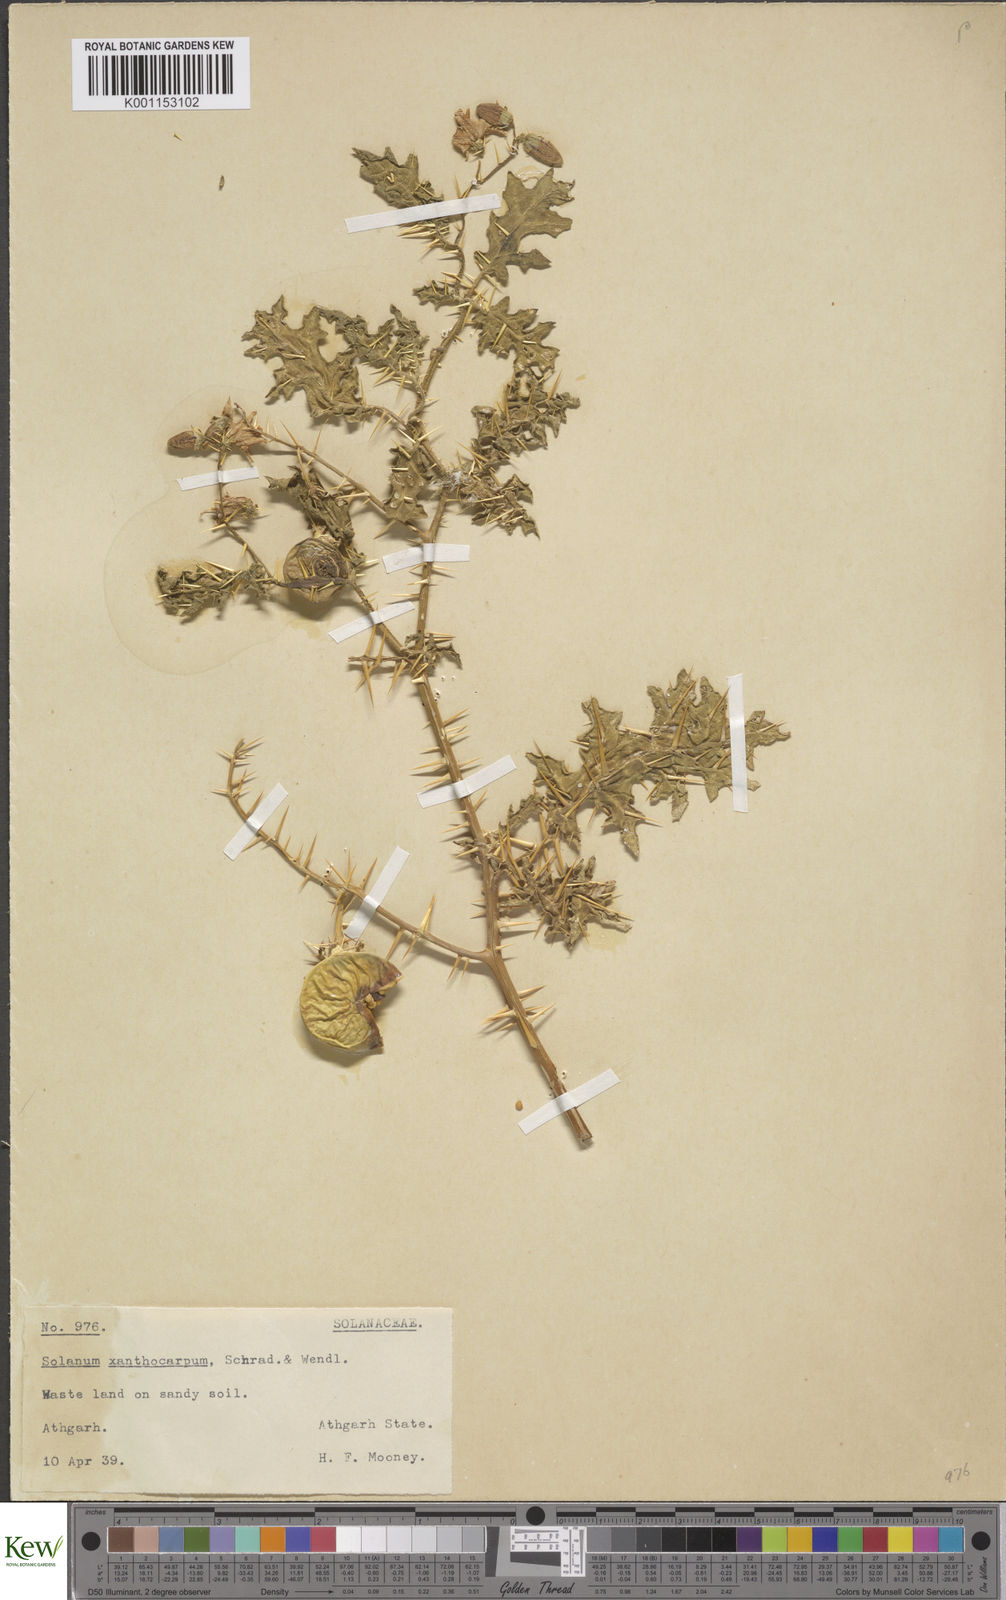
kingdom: Plantae
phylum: Tracheophyta
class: Magnoliopsida
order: Solanales
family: Solanaceae
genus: Solanum
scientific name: Solanum virginianum
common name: Surattense nightshade
